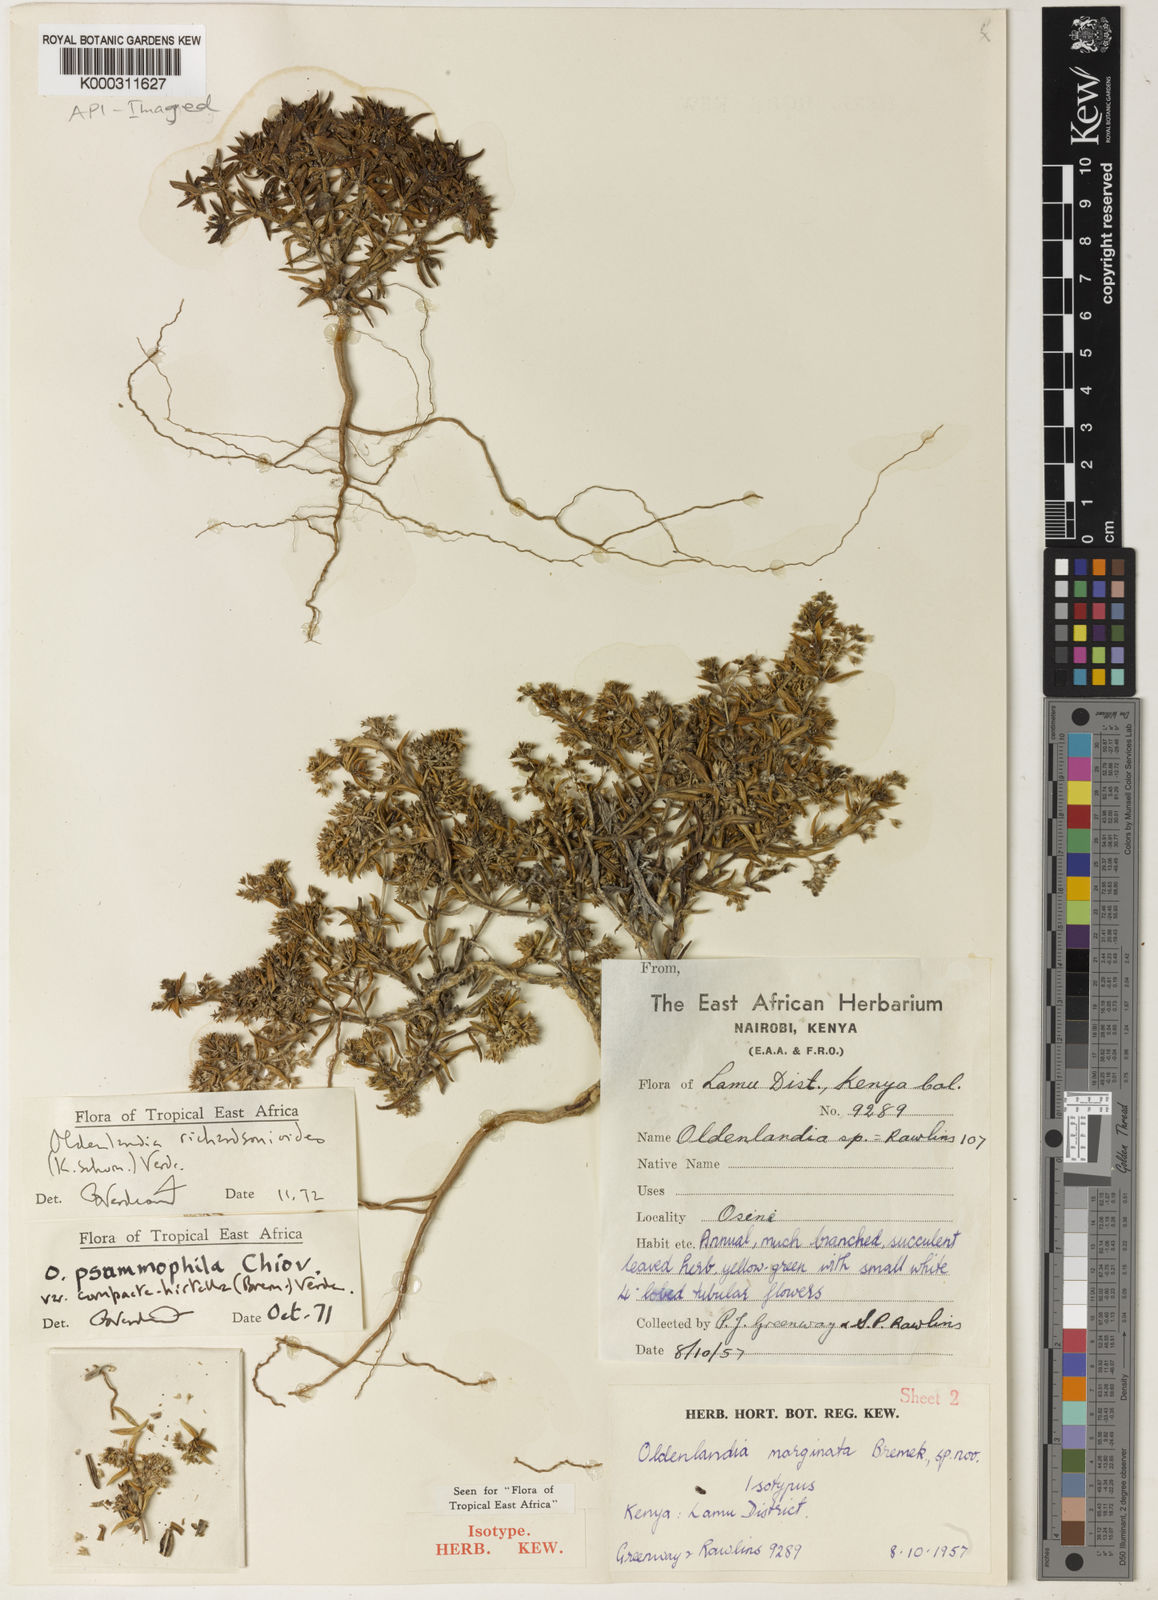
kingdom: Plantae
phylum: Tracheophyta
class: Magnoliopsida
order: Gentianales
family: Rubiaceae
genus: Oldenlandia
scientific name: Oldenlandia richardsonioides
